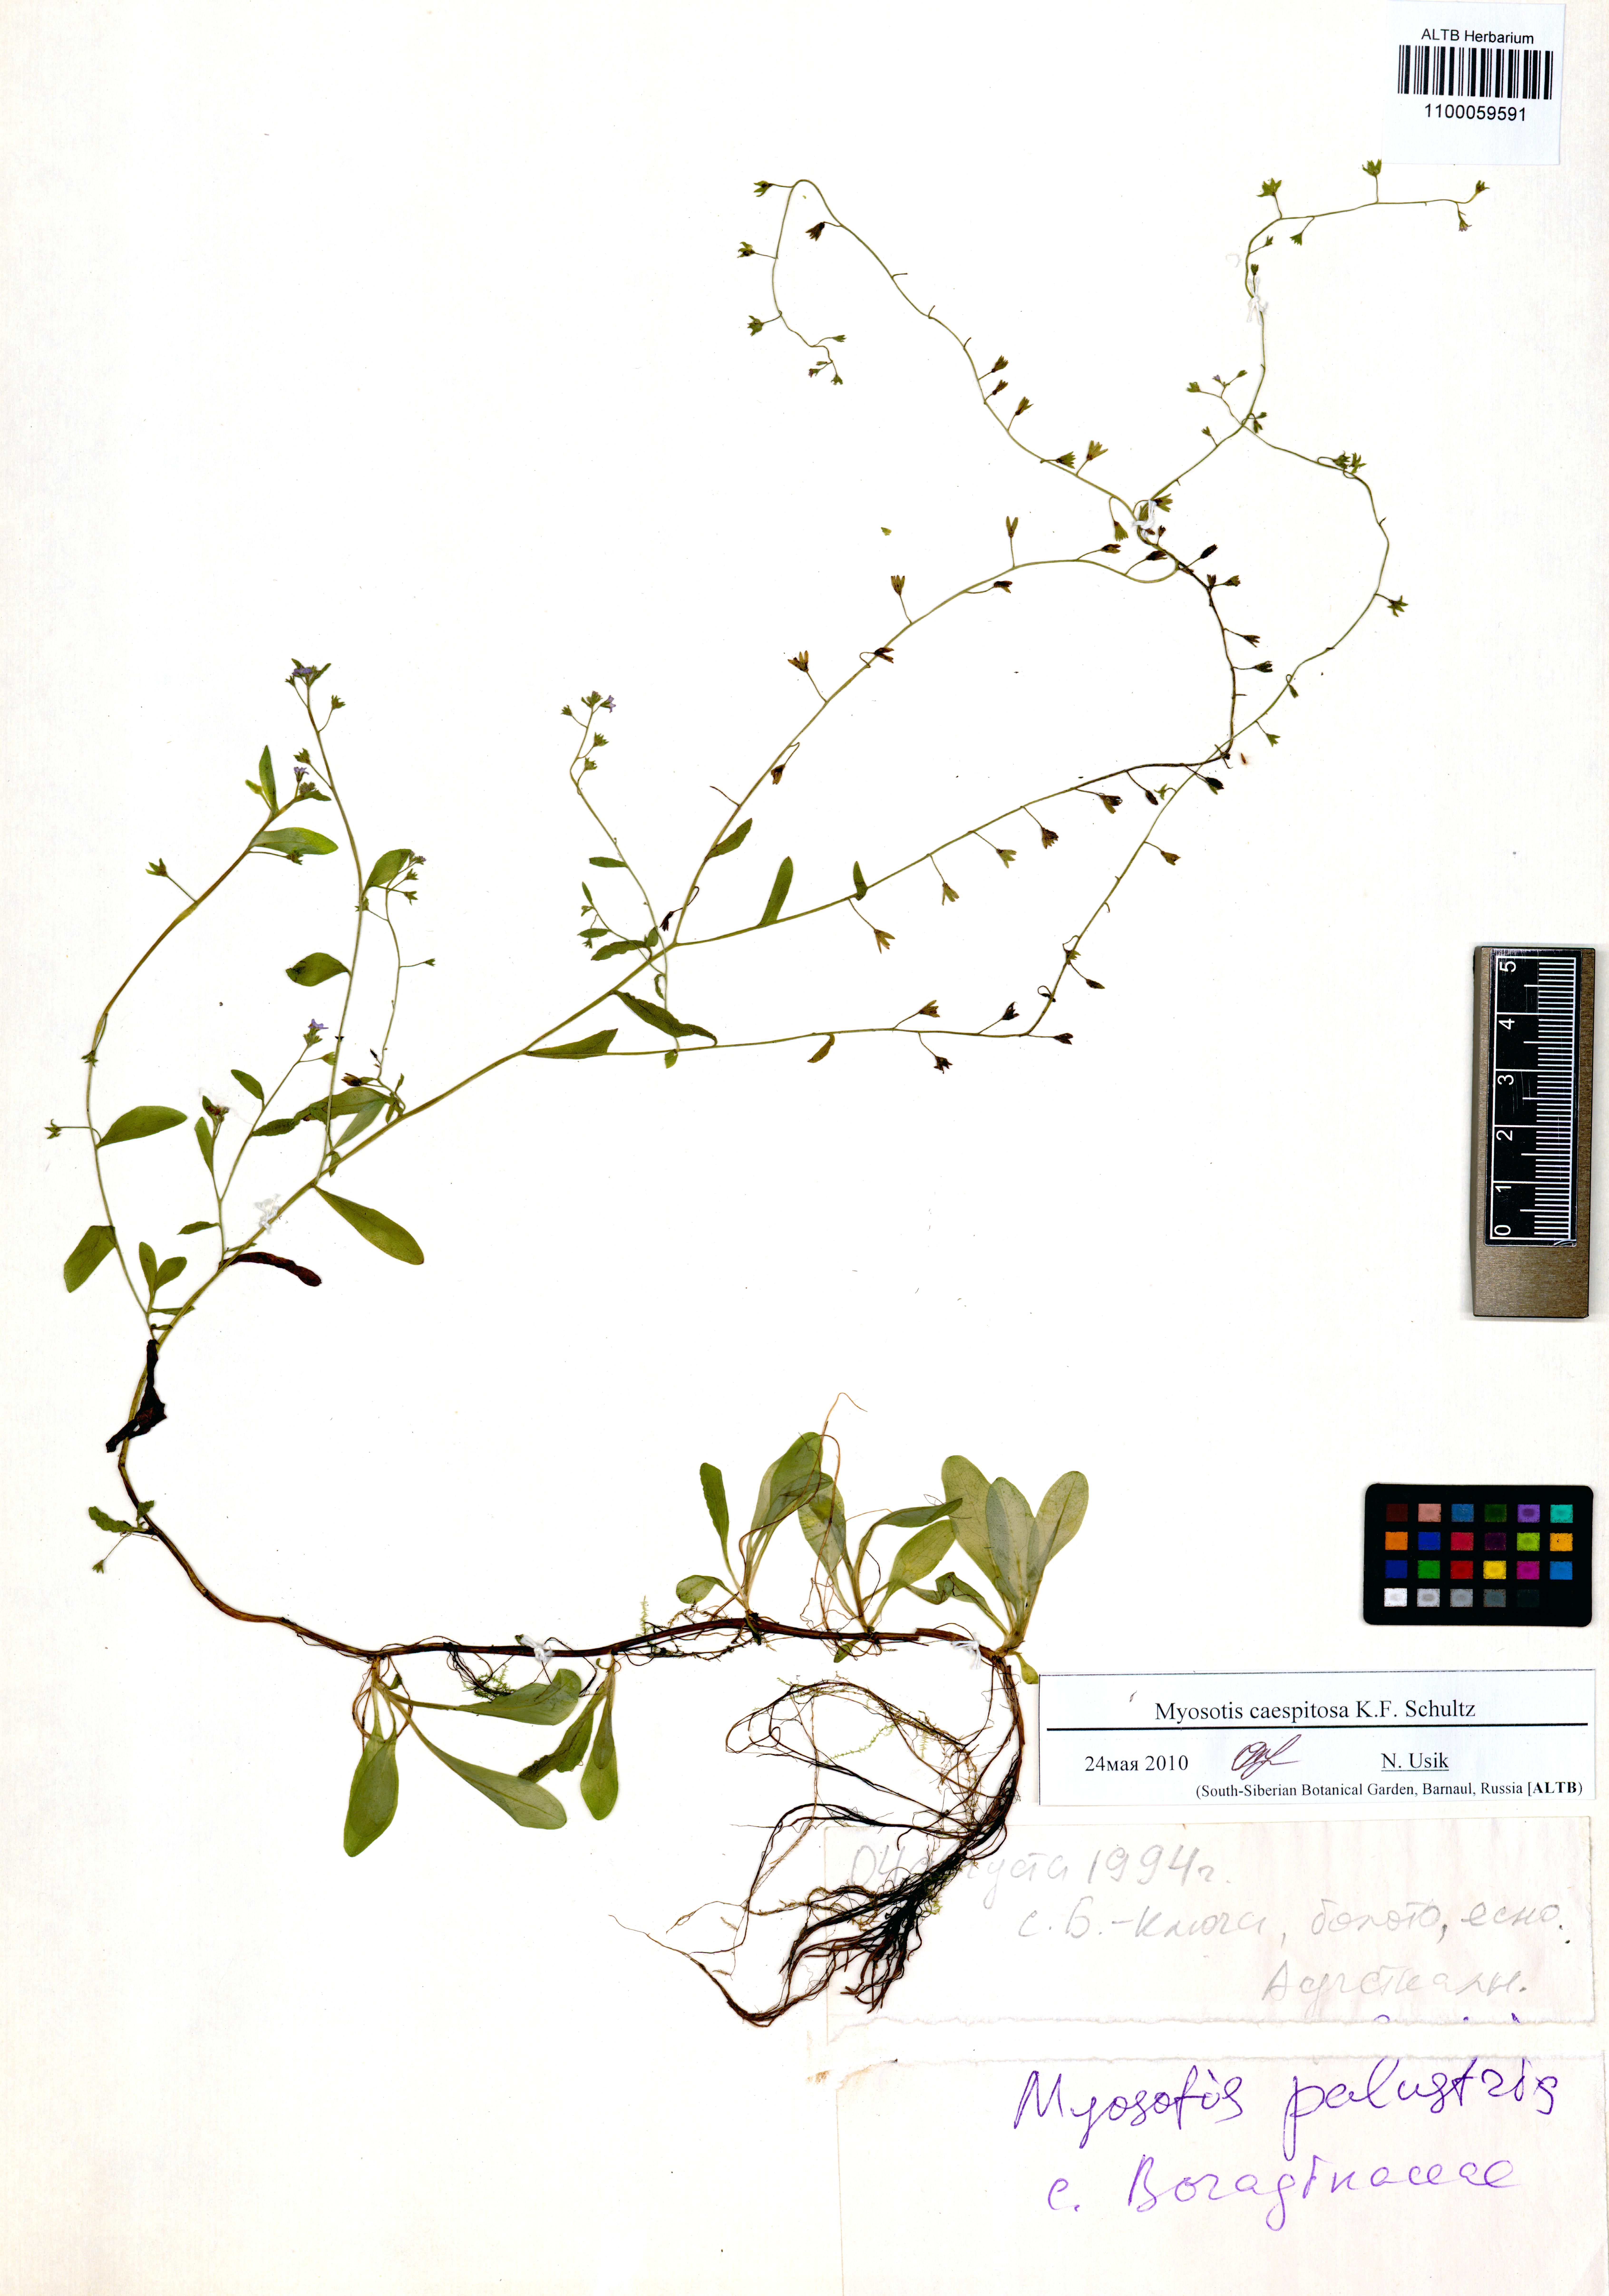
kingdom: Plantae
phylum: Tracheophyta
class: Magnoliopsida
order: Boraginales
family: Boraginaceae
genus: Myosotis
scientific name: Myosotis laxa
